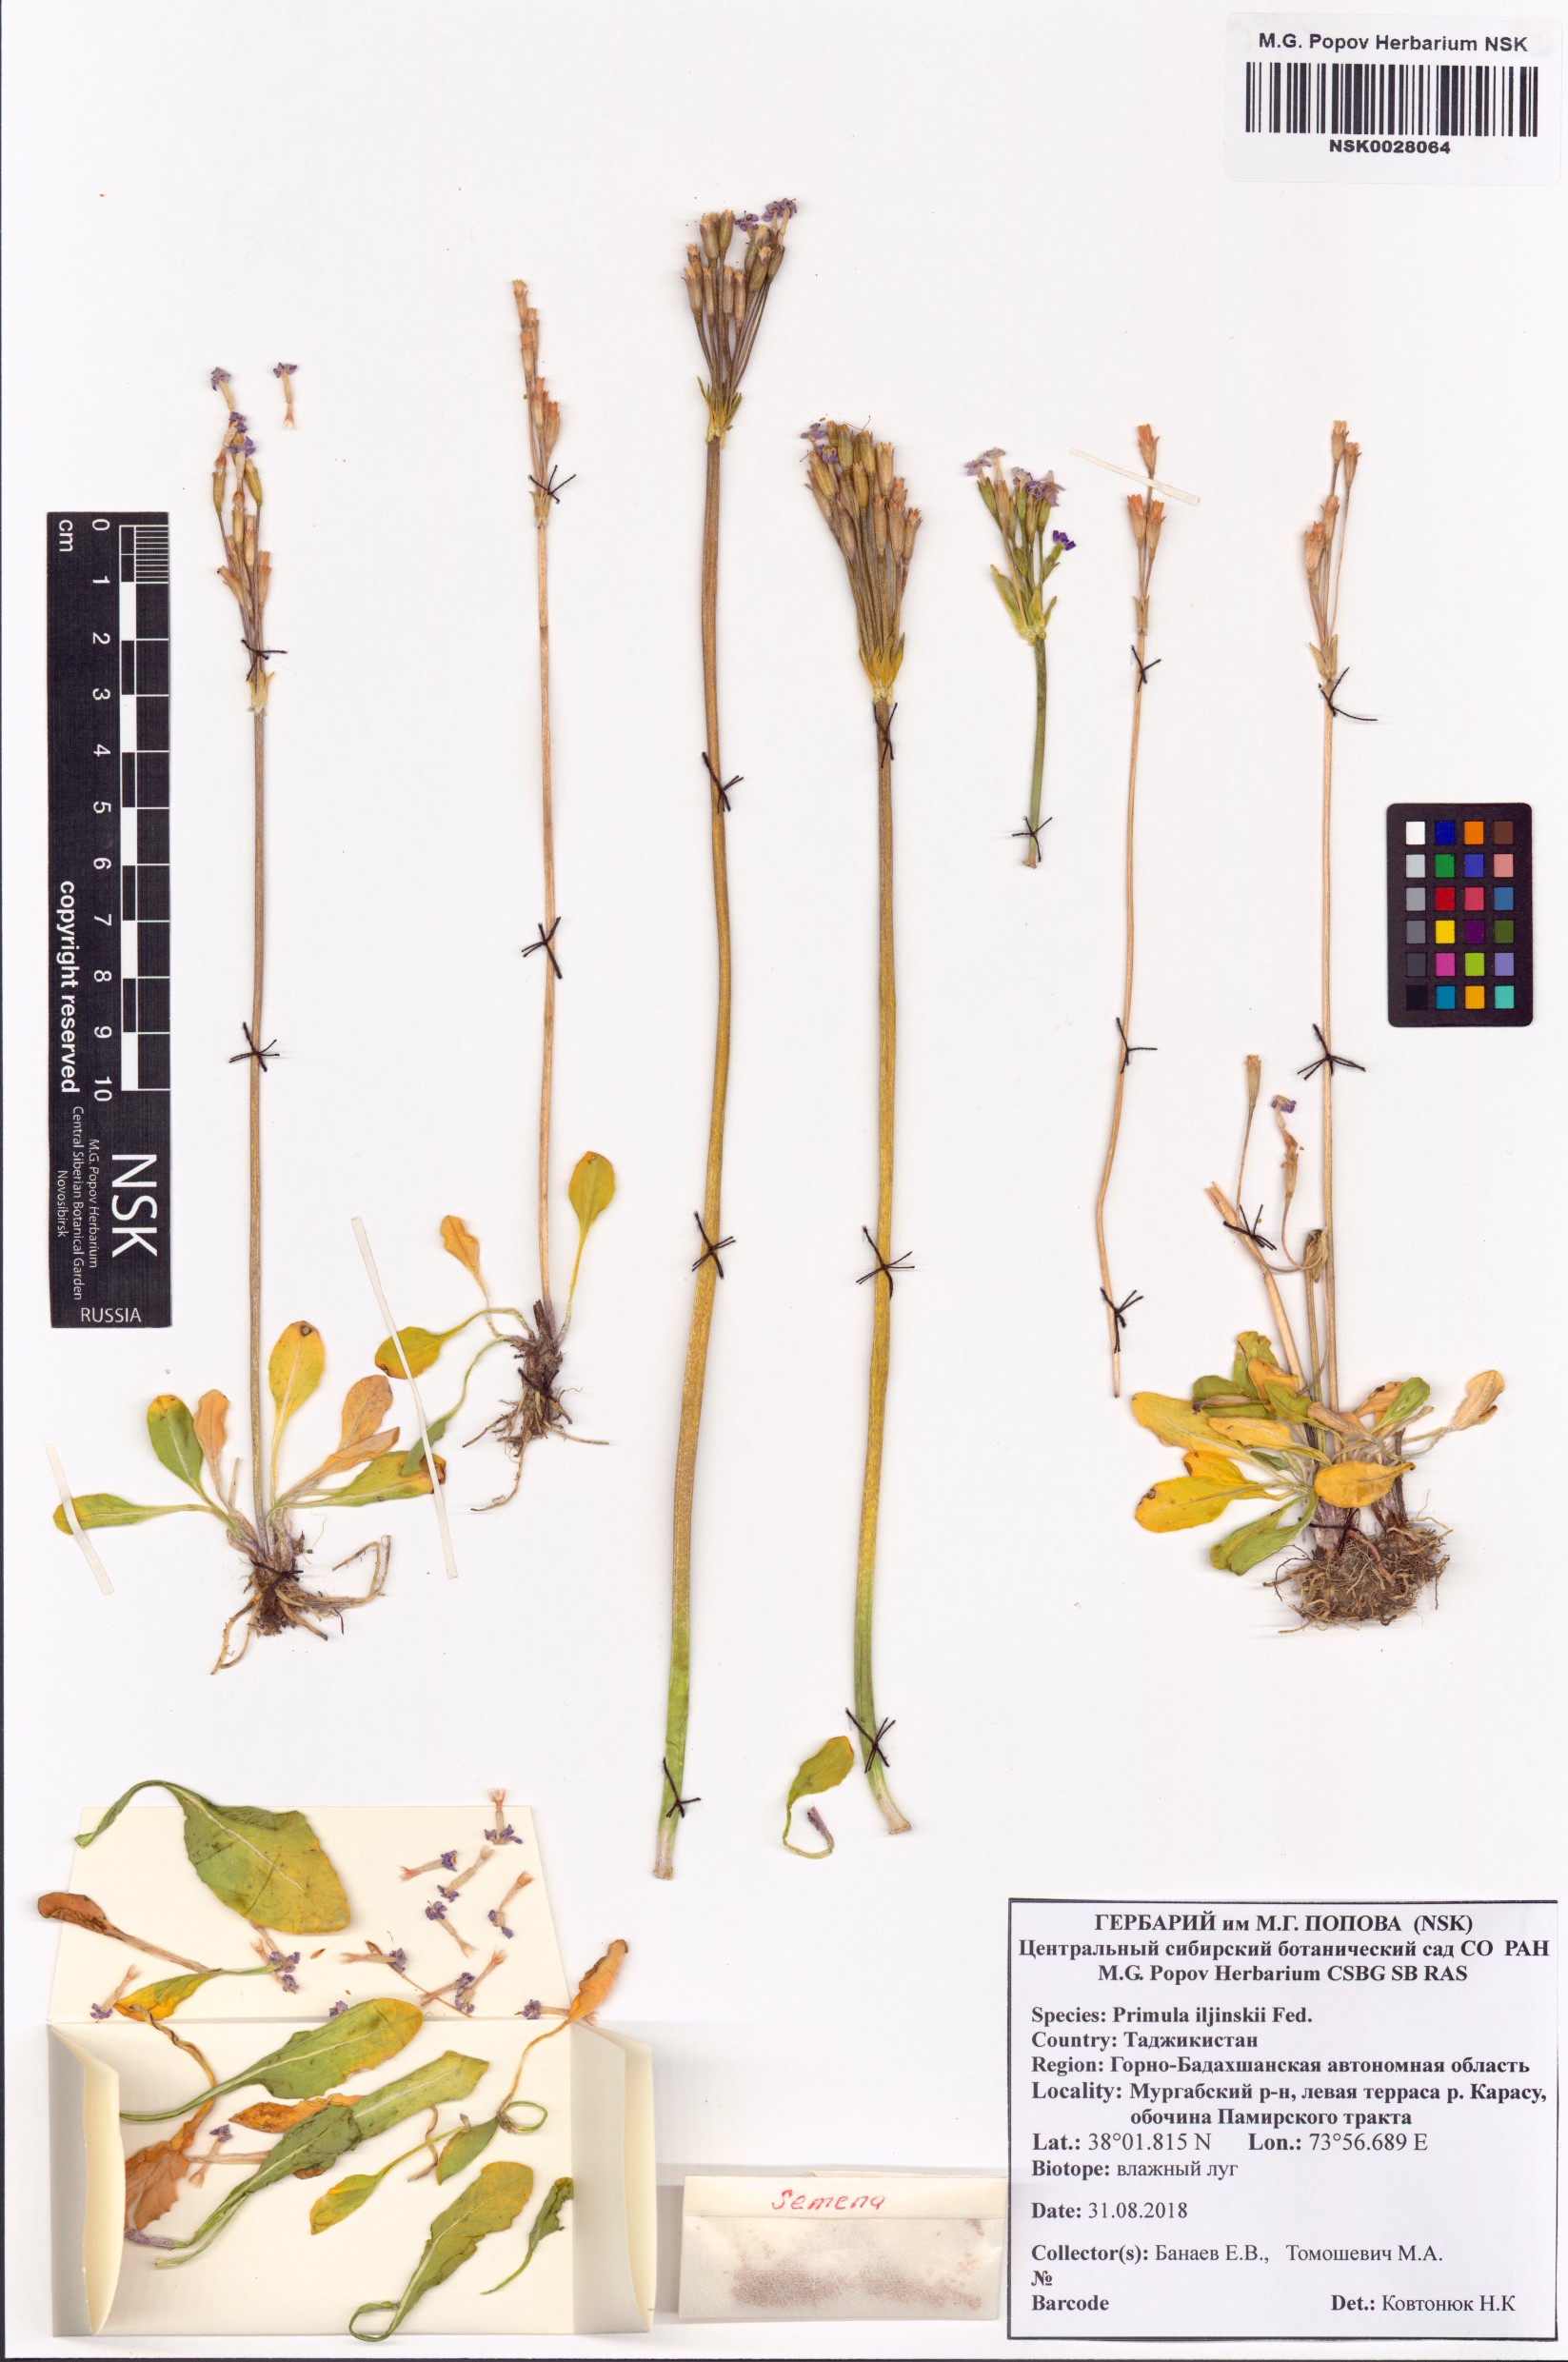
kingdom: Plantae
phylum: Tracheophyta
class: Magnoliopsida
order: Ericales
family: Primulaceae
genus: Primula
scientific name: Primula iljinskii
